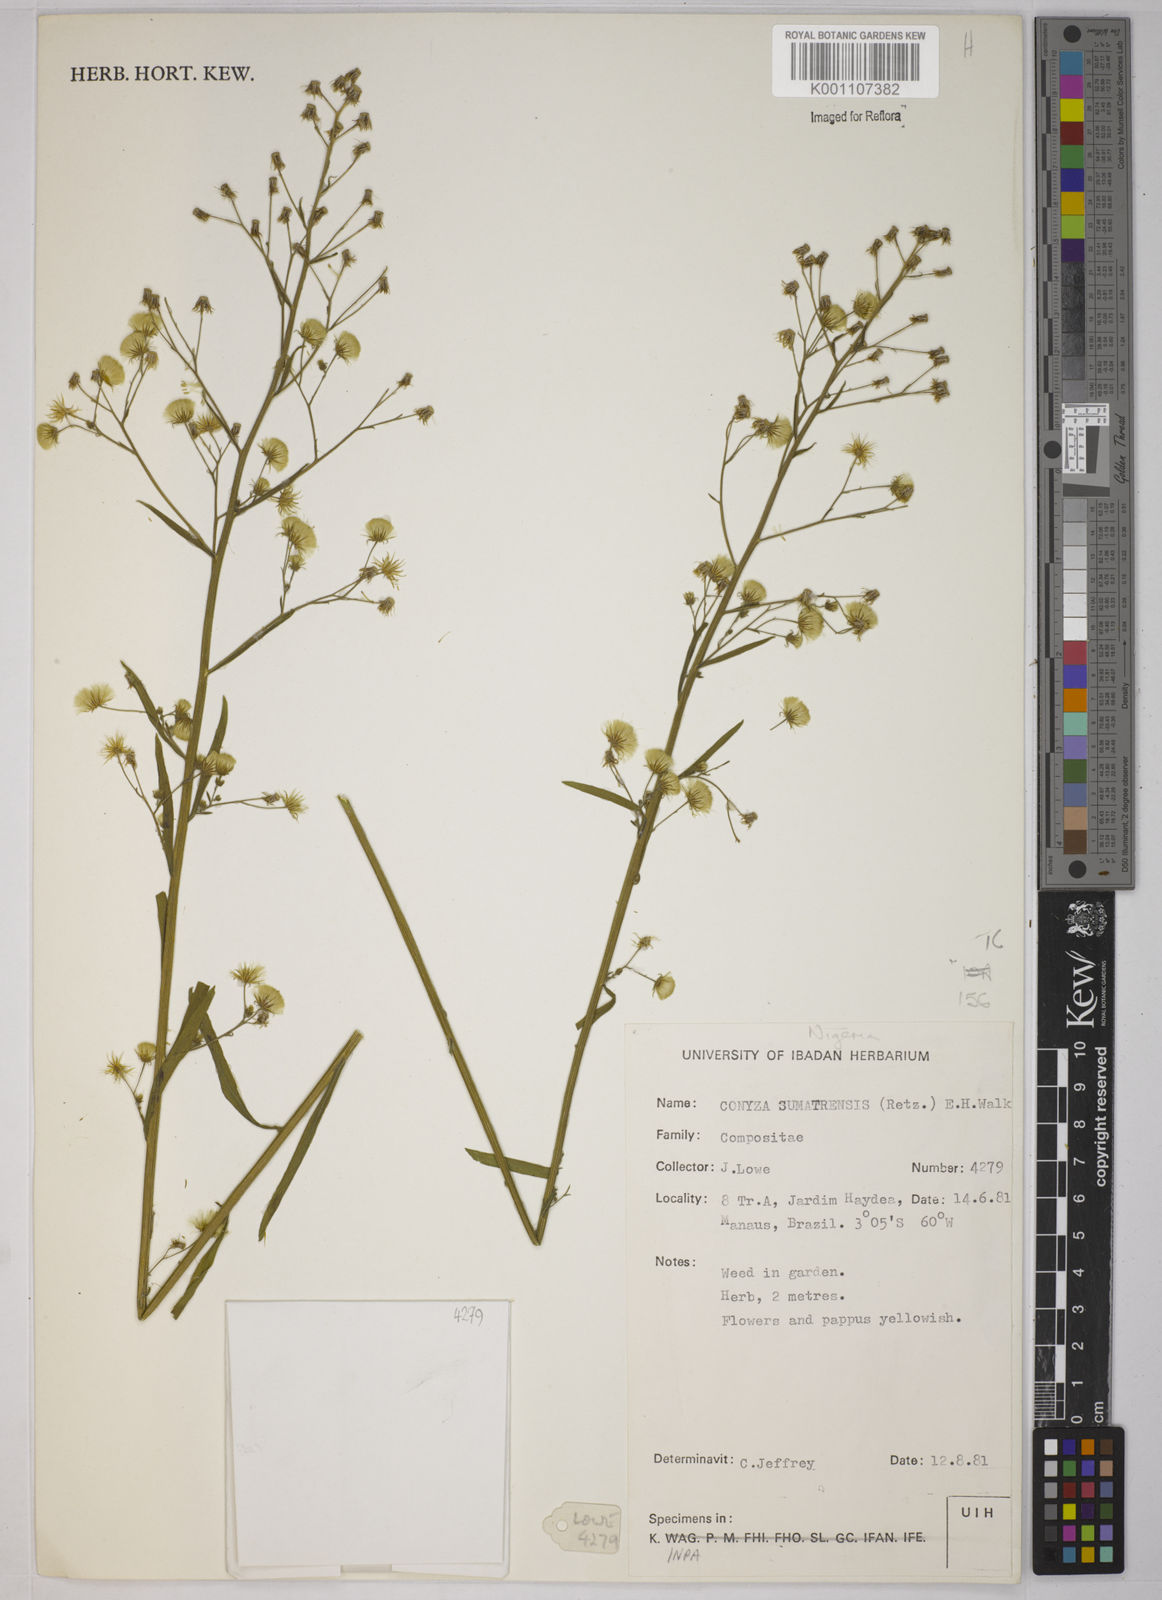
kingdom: Plantae
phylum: Tracheophyta
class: Magnoliopsida
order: Asterales
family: Asteraceae
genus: Erigeron
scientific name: Erigeron sumatrensis
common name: Daisy
